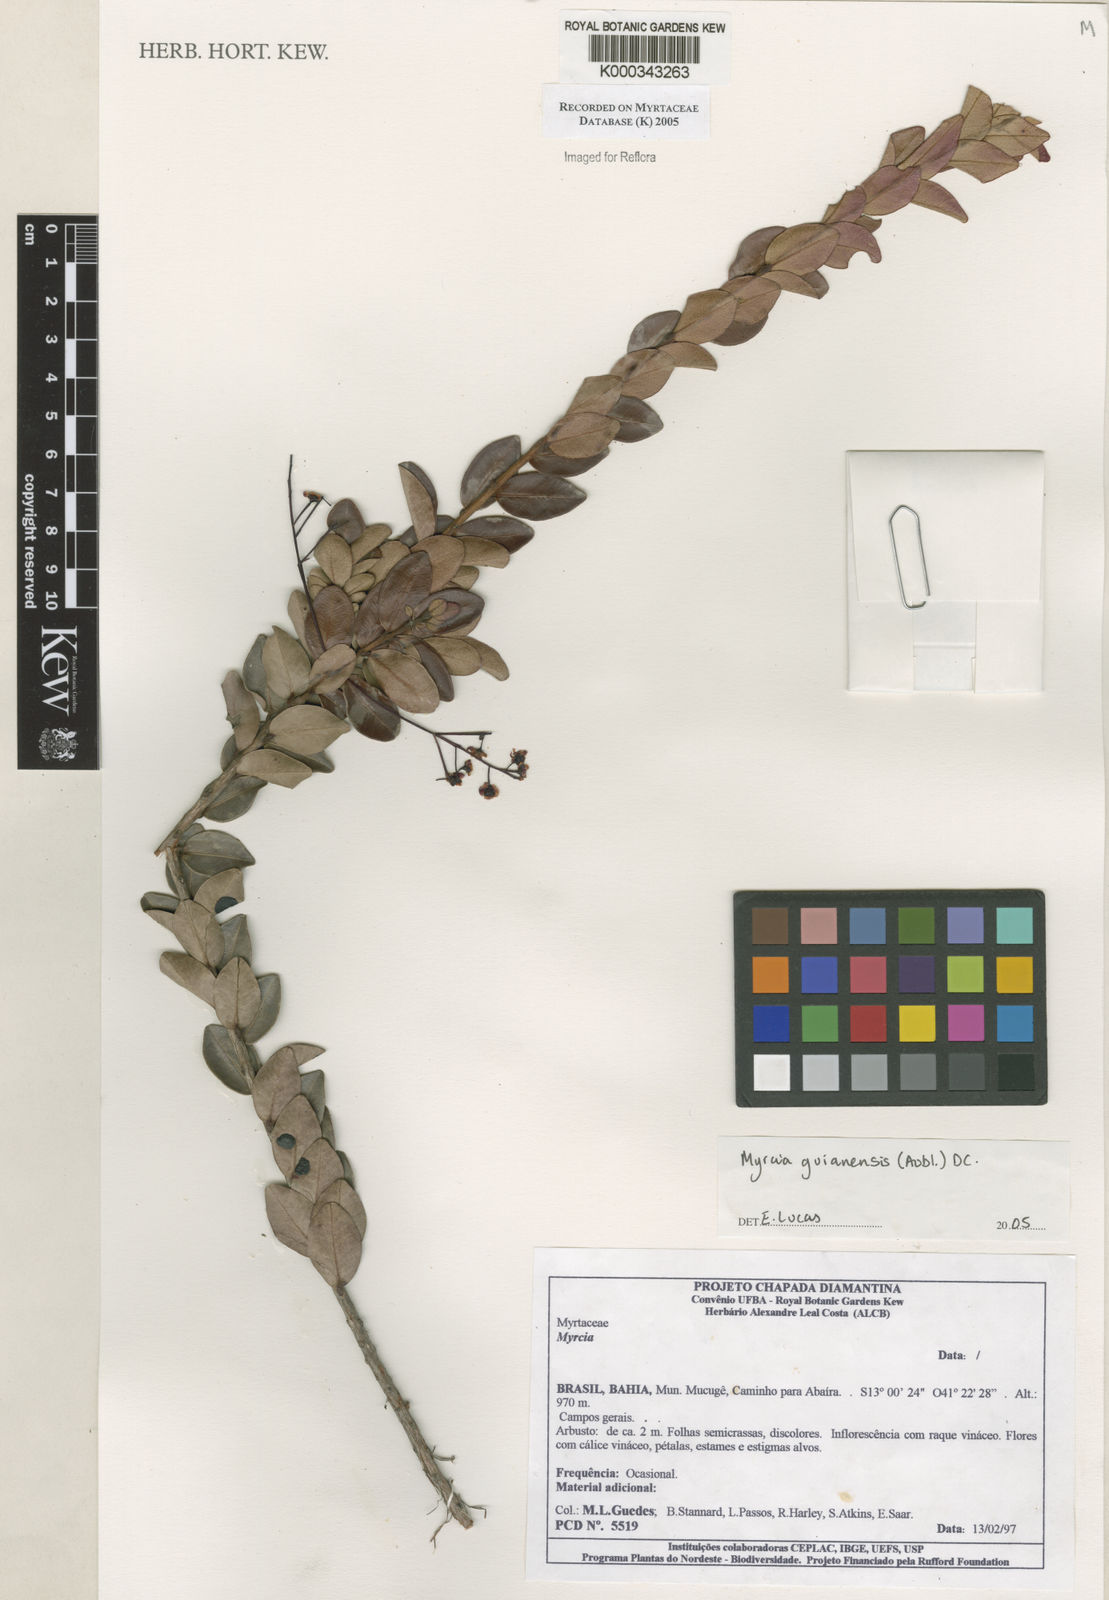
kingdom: Plantae
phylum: Tracheophyta
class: Magnoliopsida
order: Myrtales
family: Myrtaceae
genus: Myrcia
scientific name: Myrcia guianensis
